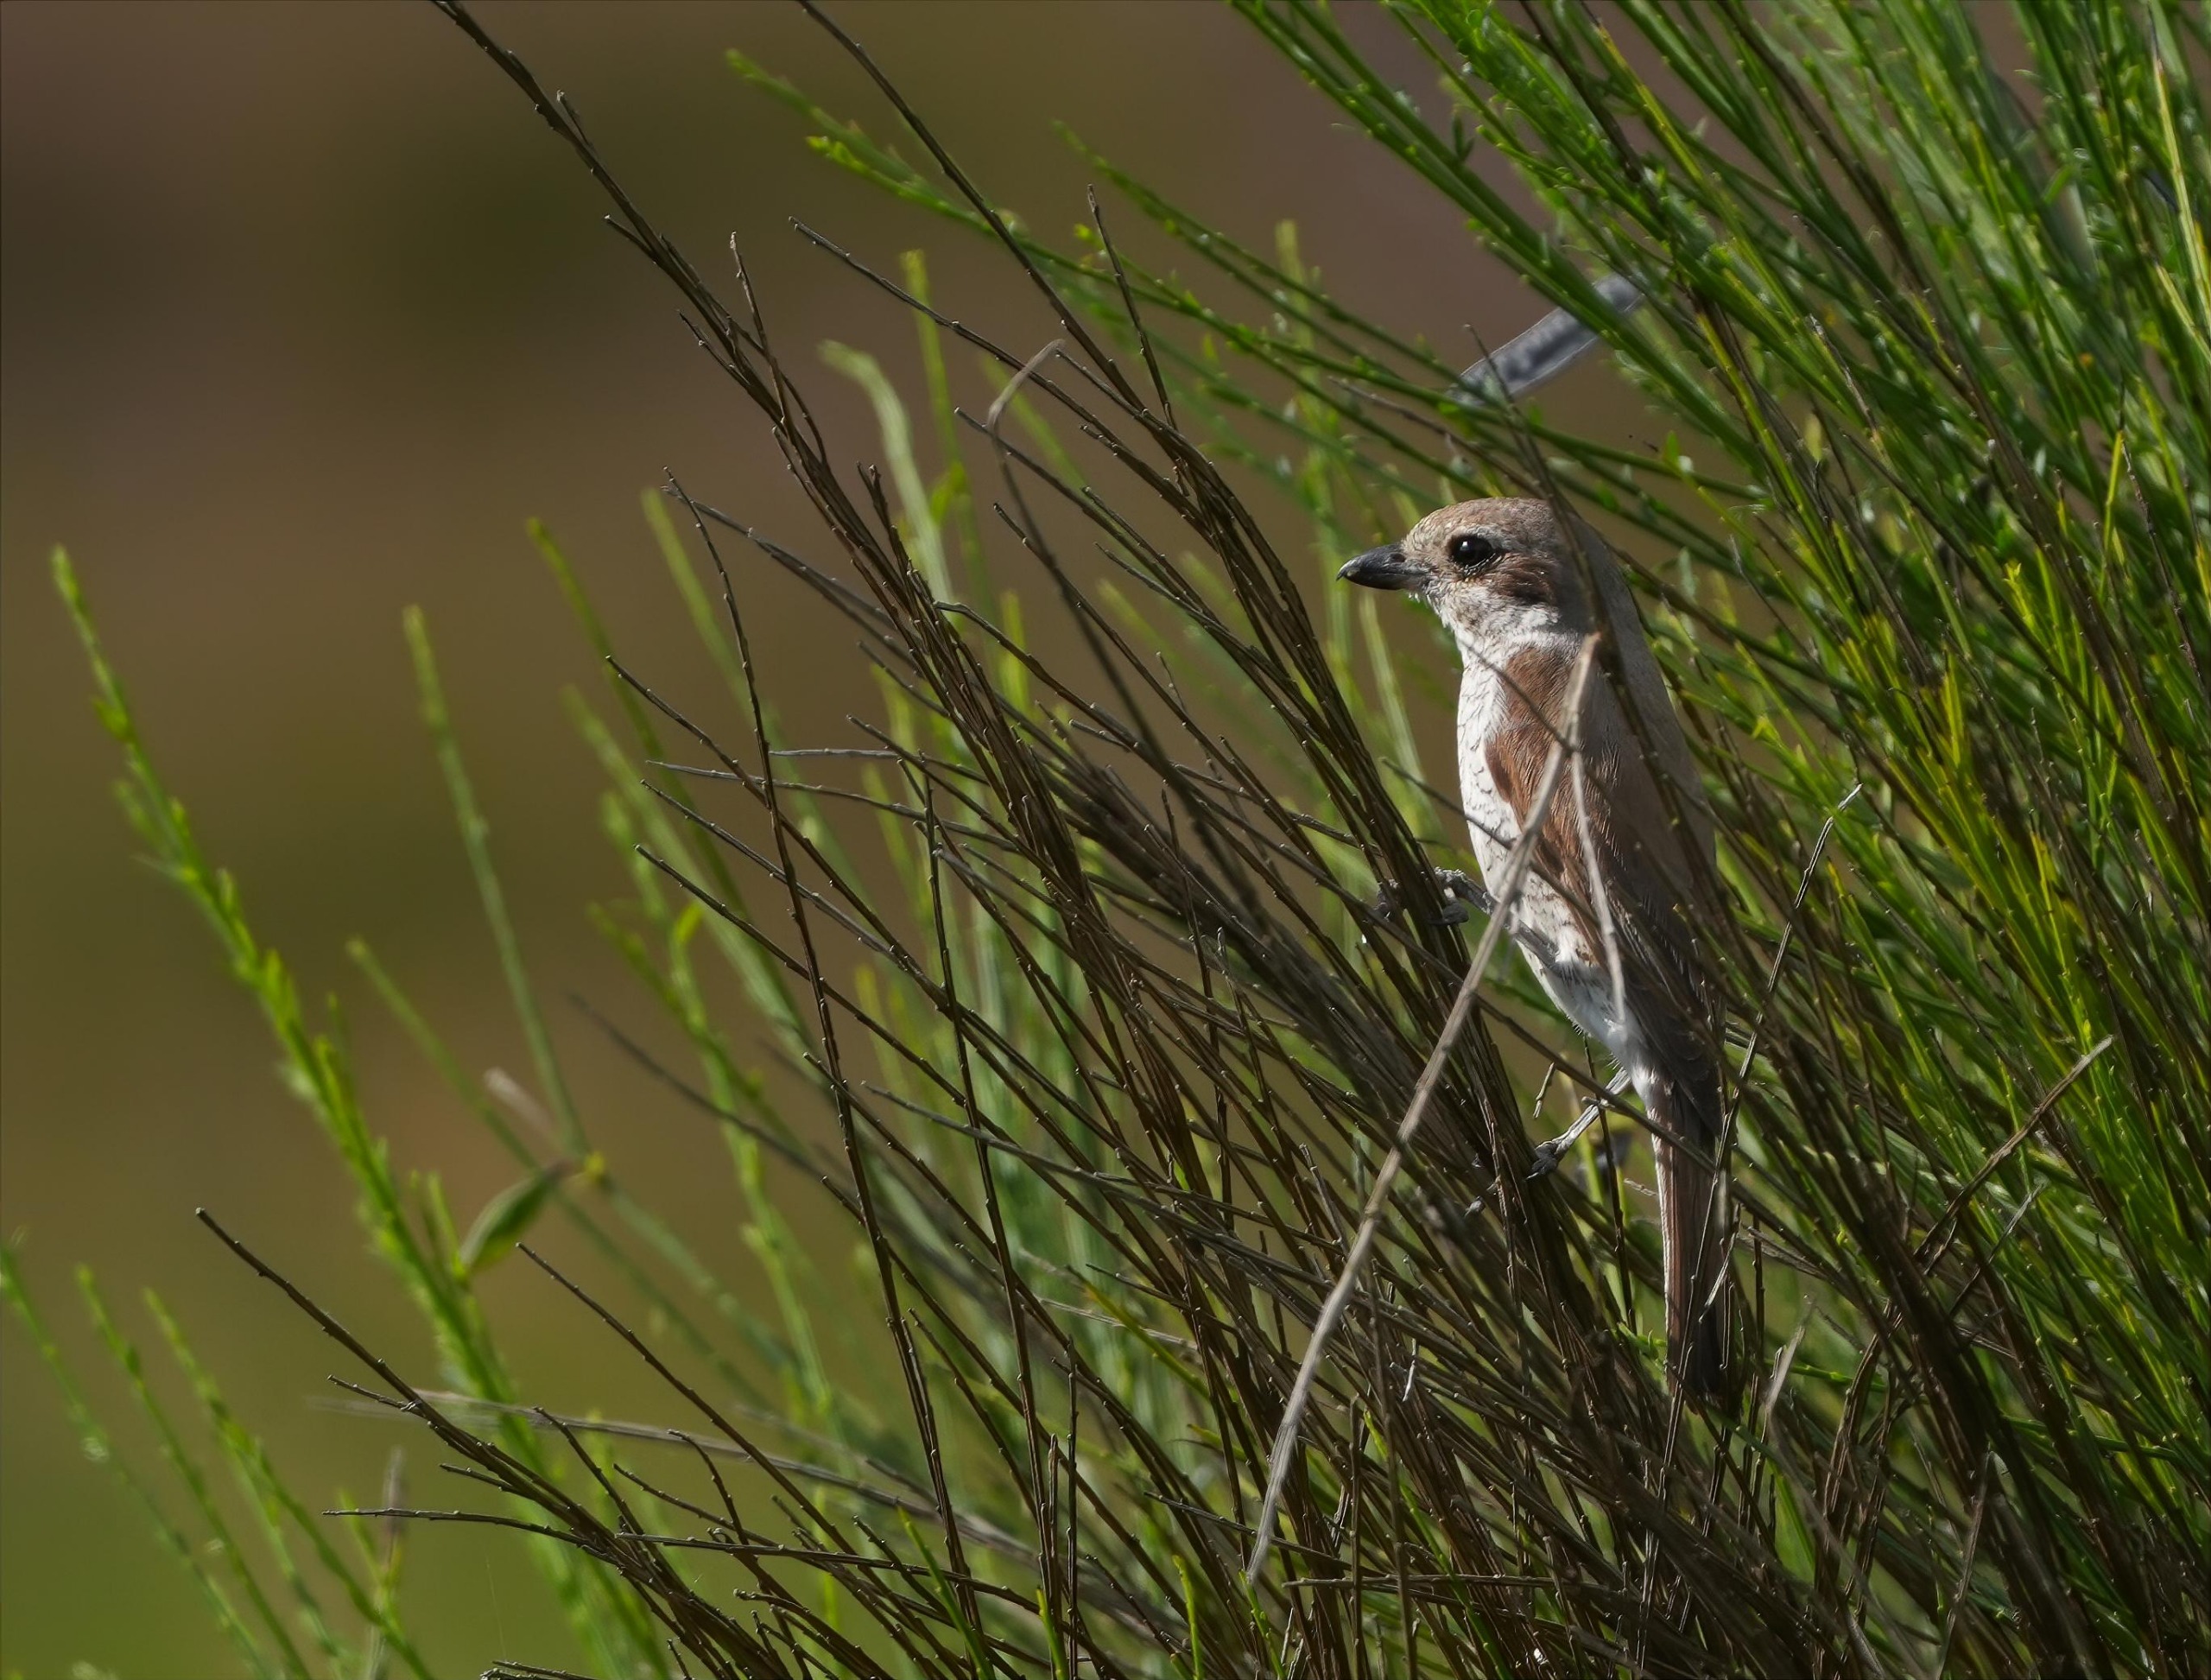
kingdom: Animalia
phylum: Chordata
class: Aves
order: Passeriformes
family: Laniidae
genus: Lanius
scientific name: Lanius collurio
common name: Rødrygget tornskade
